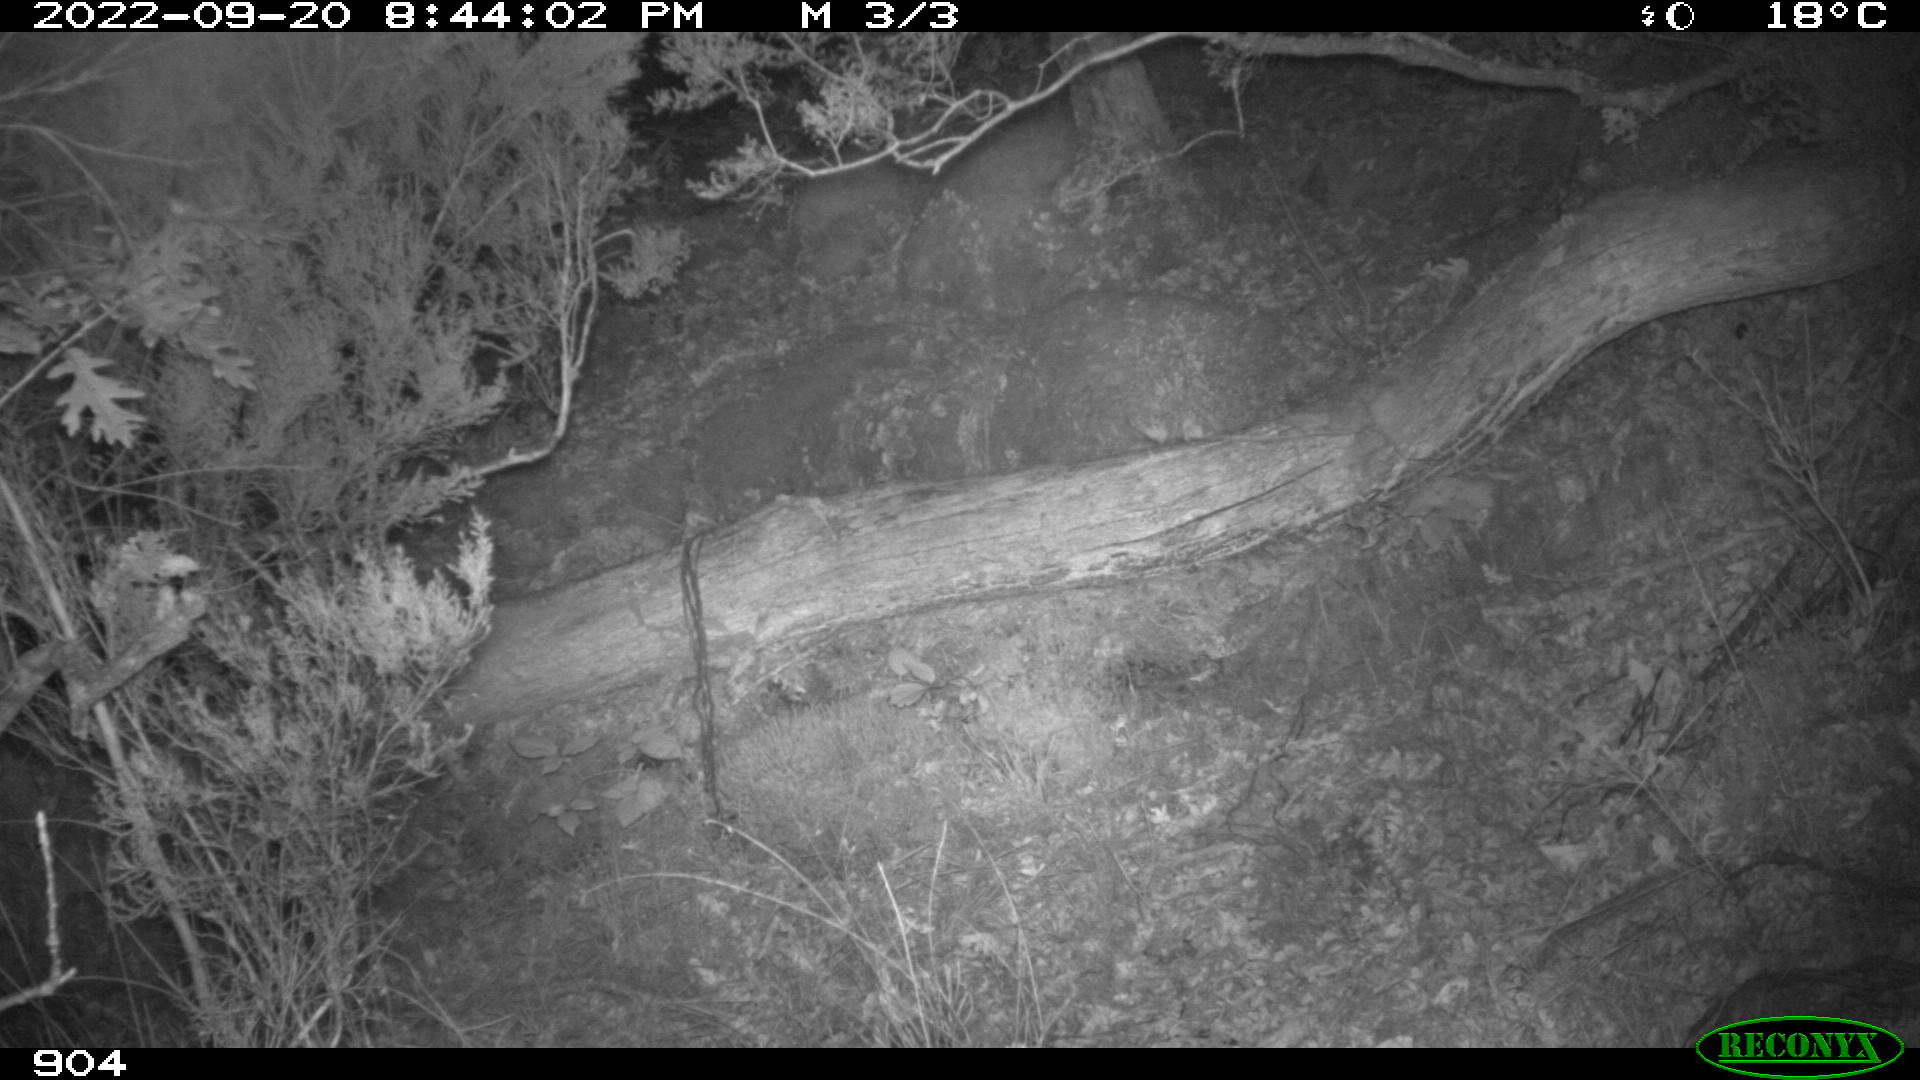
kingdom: Animalia
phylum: Chordata
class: Mammalia
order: Artiodactyla
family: Suidae
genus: Sus
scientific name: Sus scrofa
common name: Wild boar
